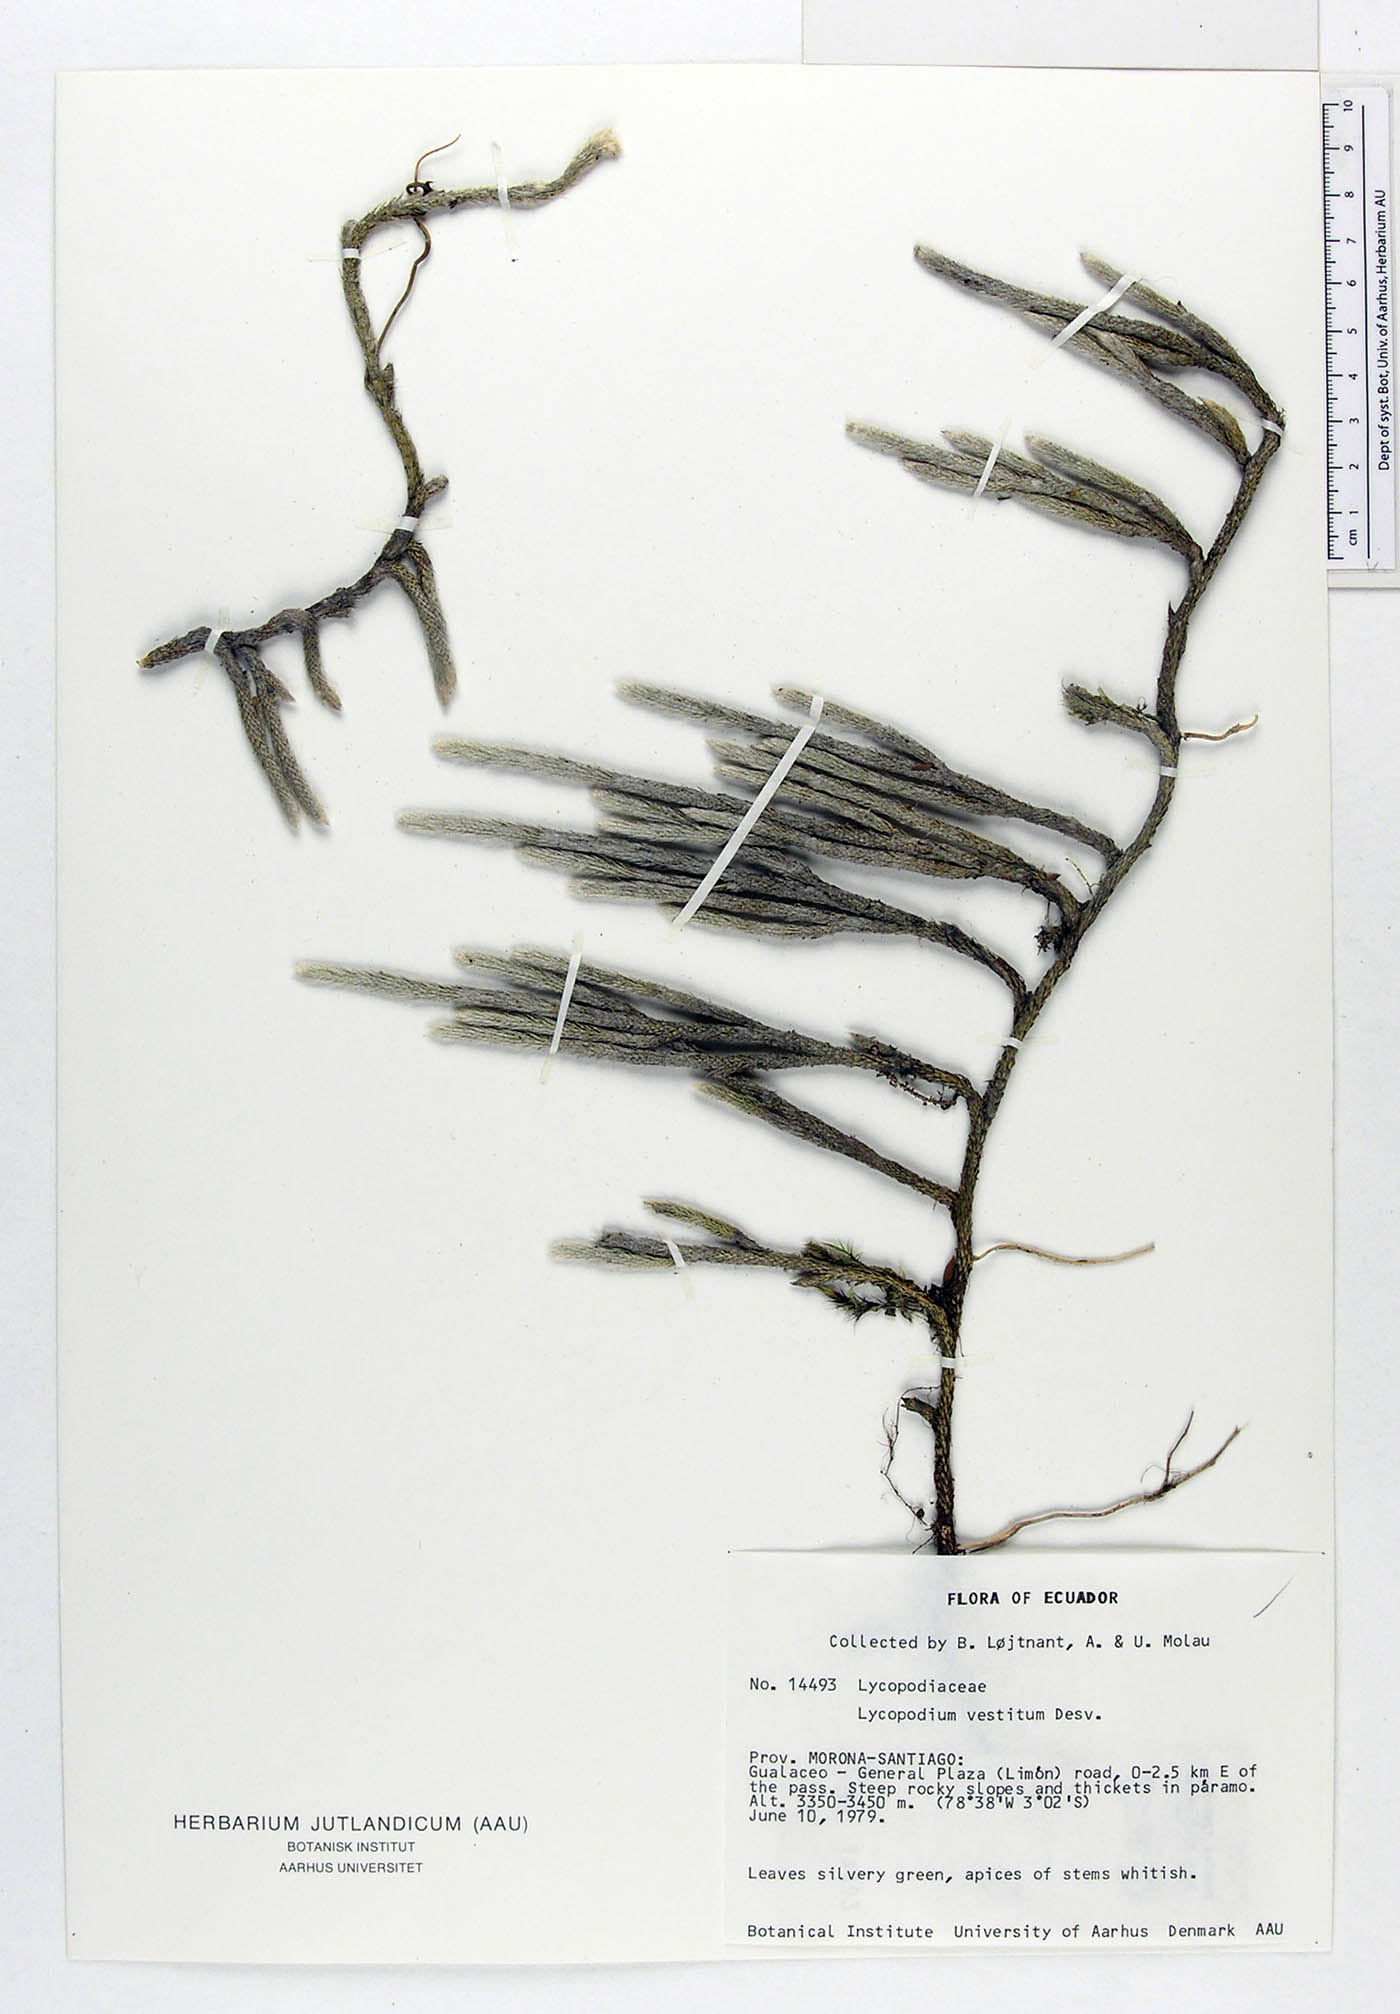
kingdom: Plantae
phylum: Tracheophyta
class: Lycopodiopsida
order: Lycopodiales
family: Lycopodiaceae
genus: Lycopodium
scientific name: Lycopodium vestitum
